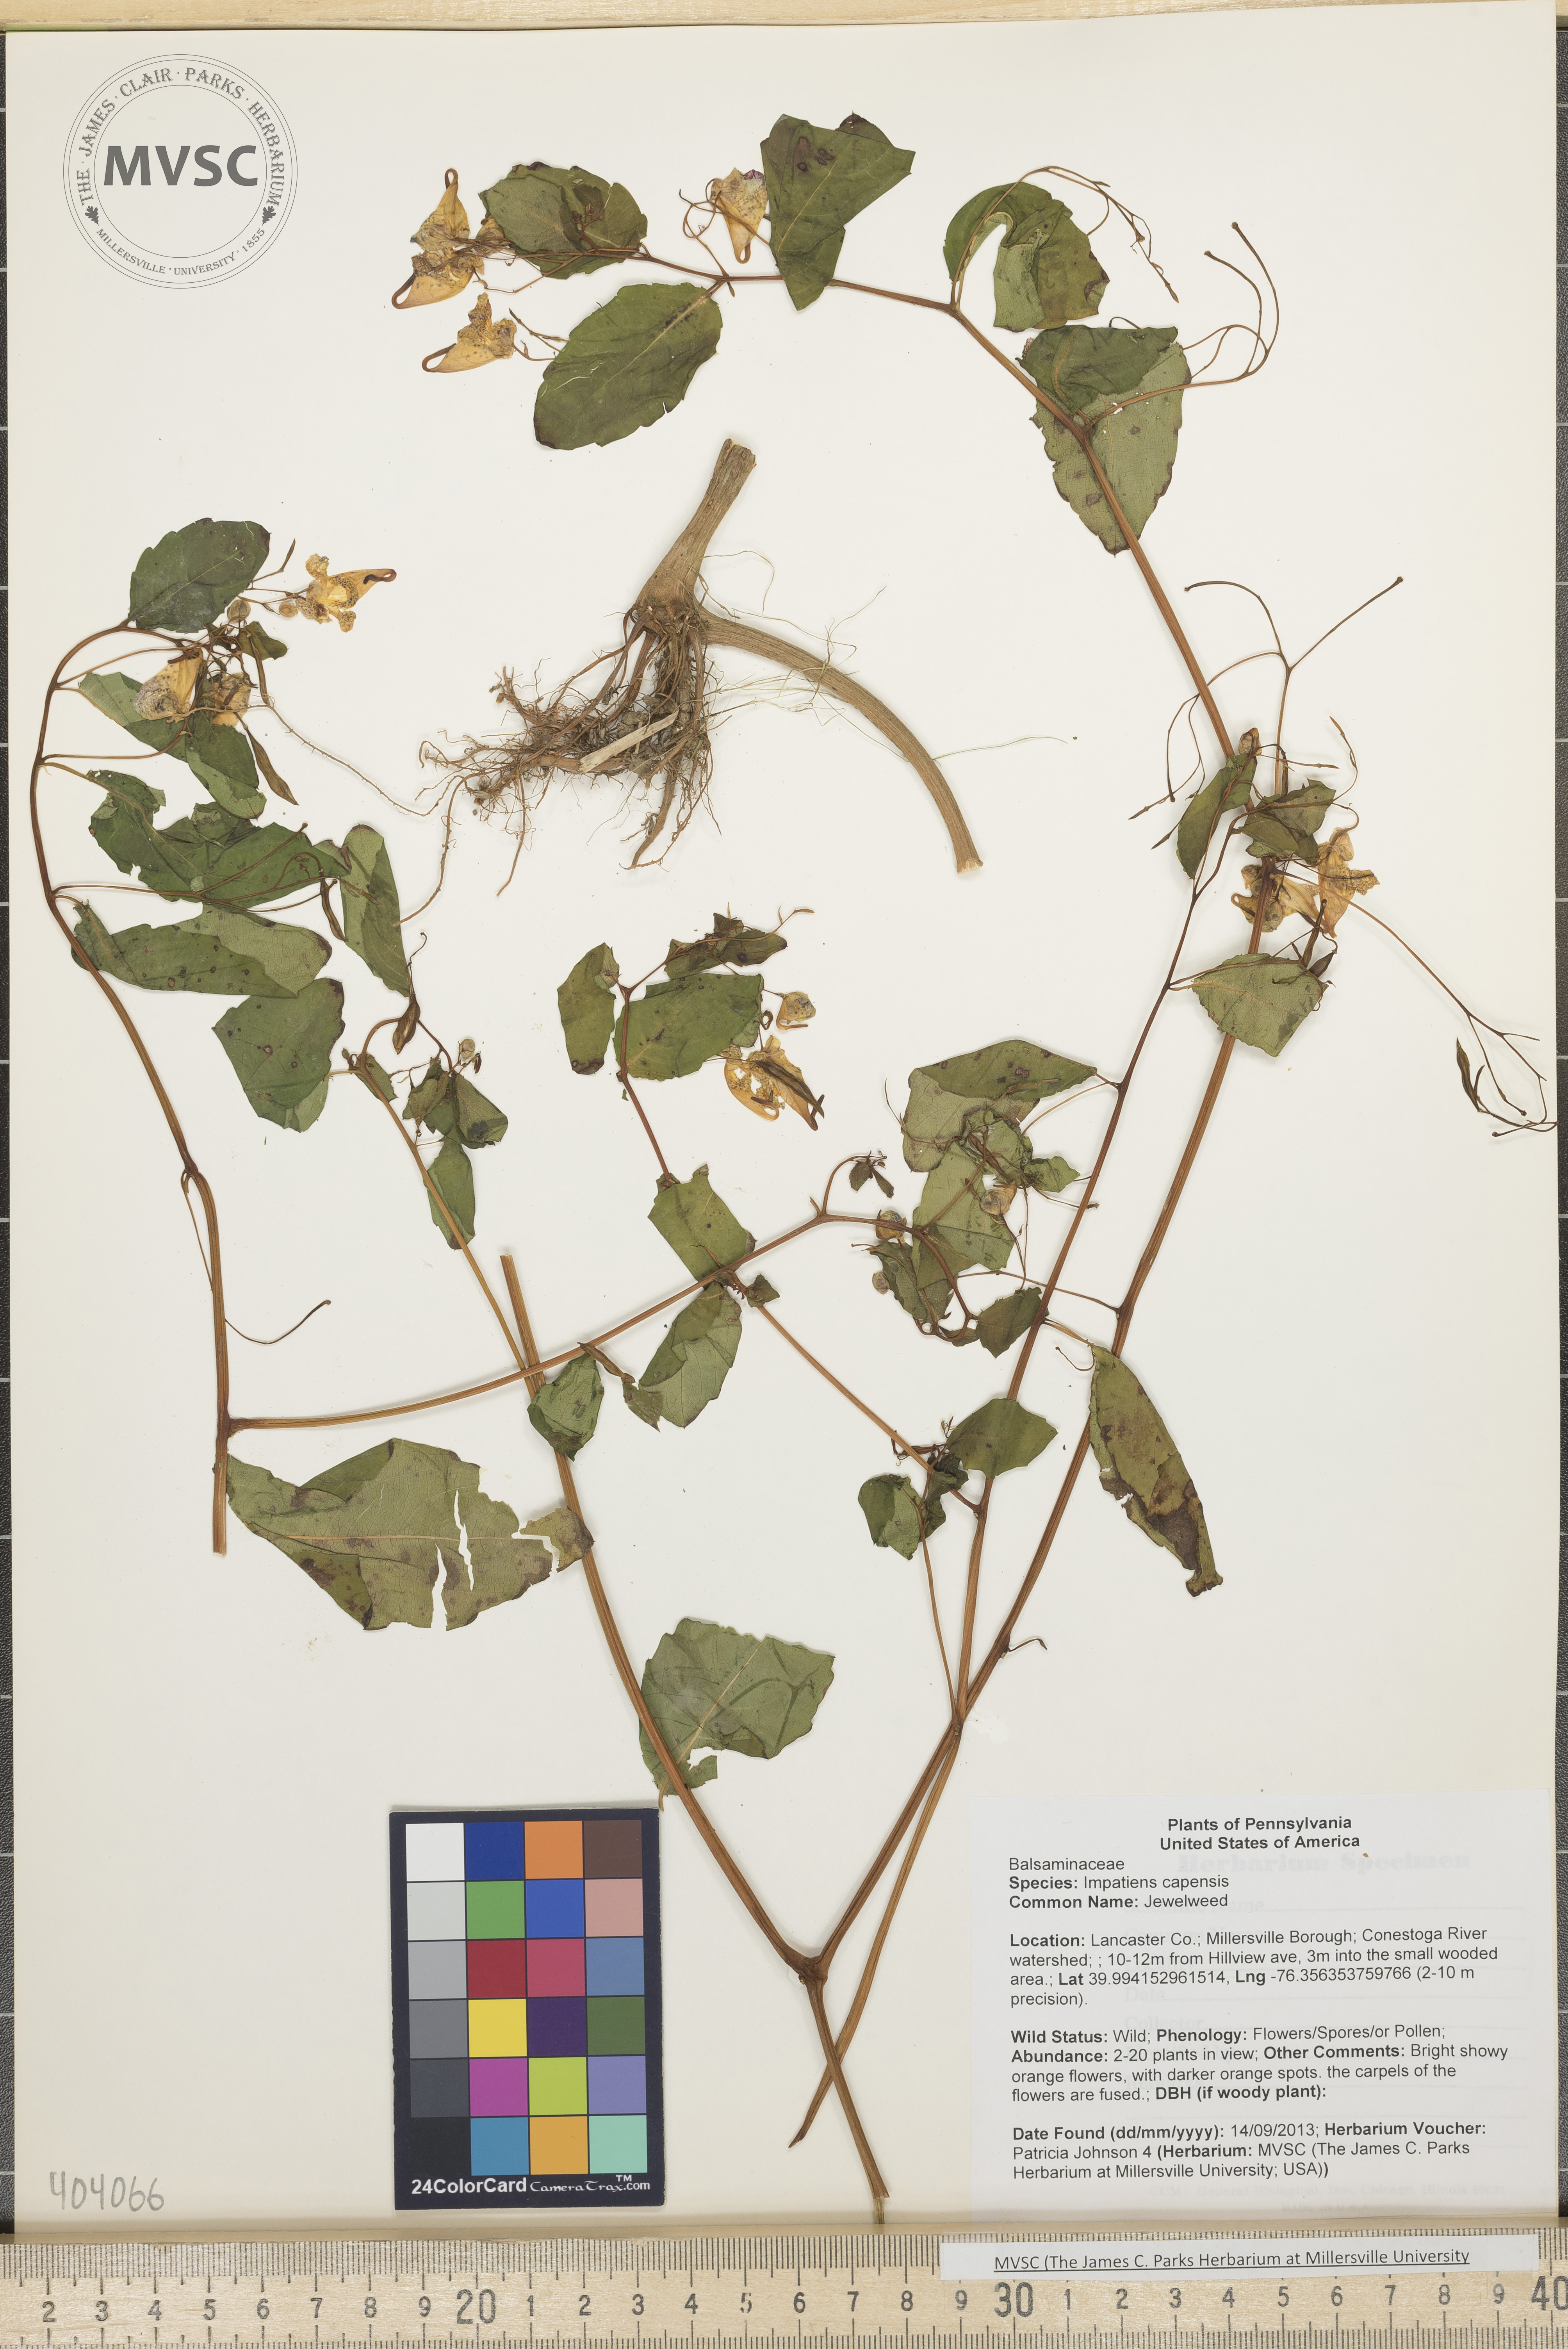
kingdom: Plantae
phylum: Tracheophyta
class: Magnoliopsida
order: Ericales
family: Balsaminaceae
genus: Impatiens
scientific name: Impatiens capensis
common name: Jewelweed
